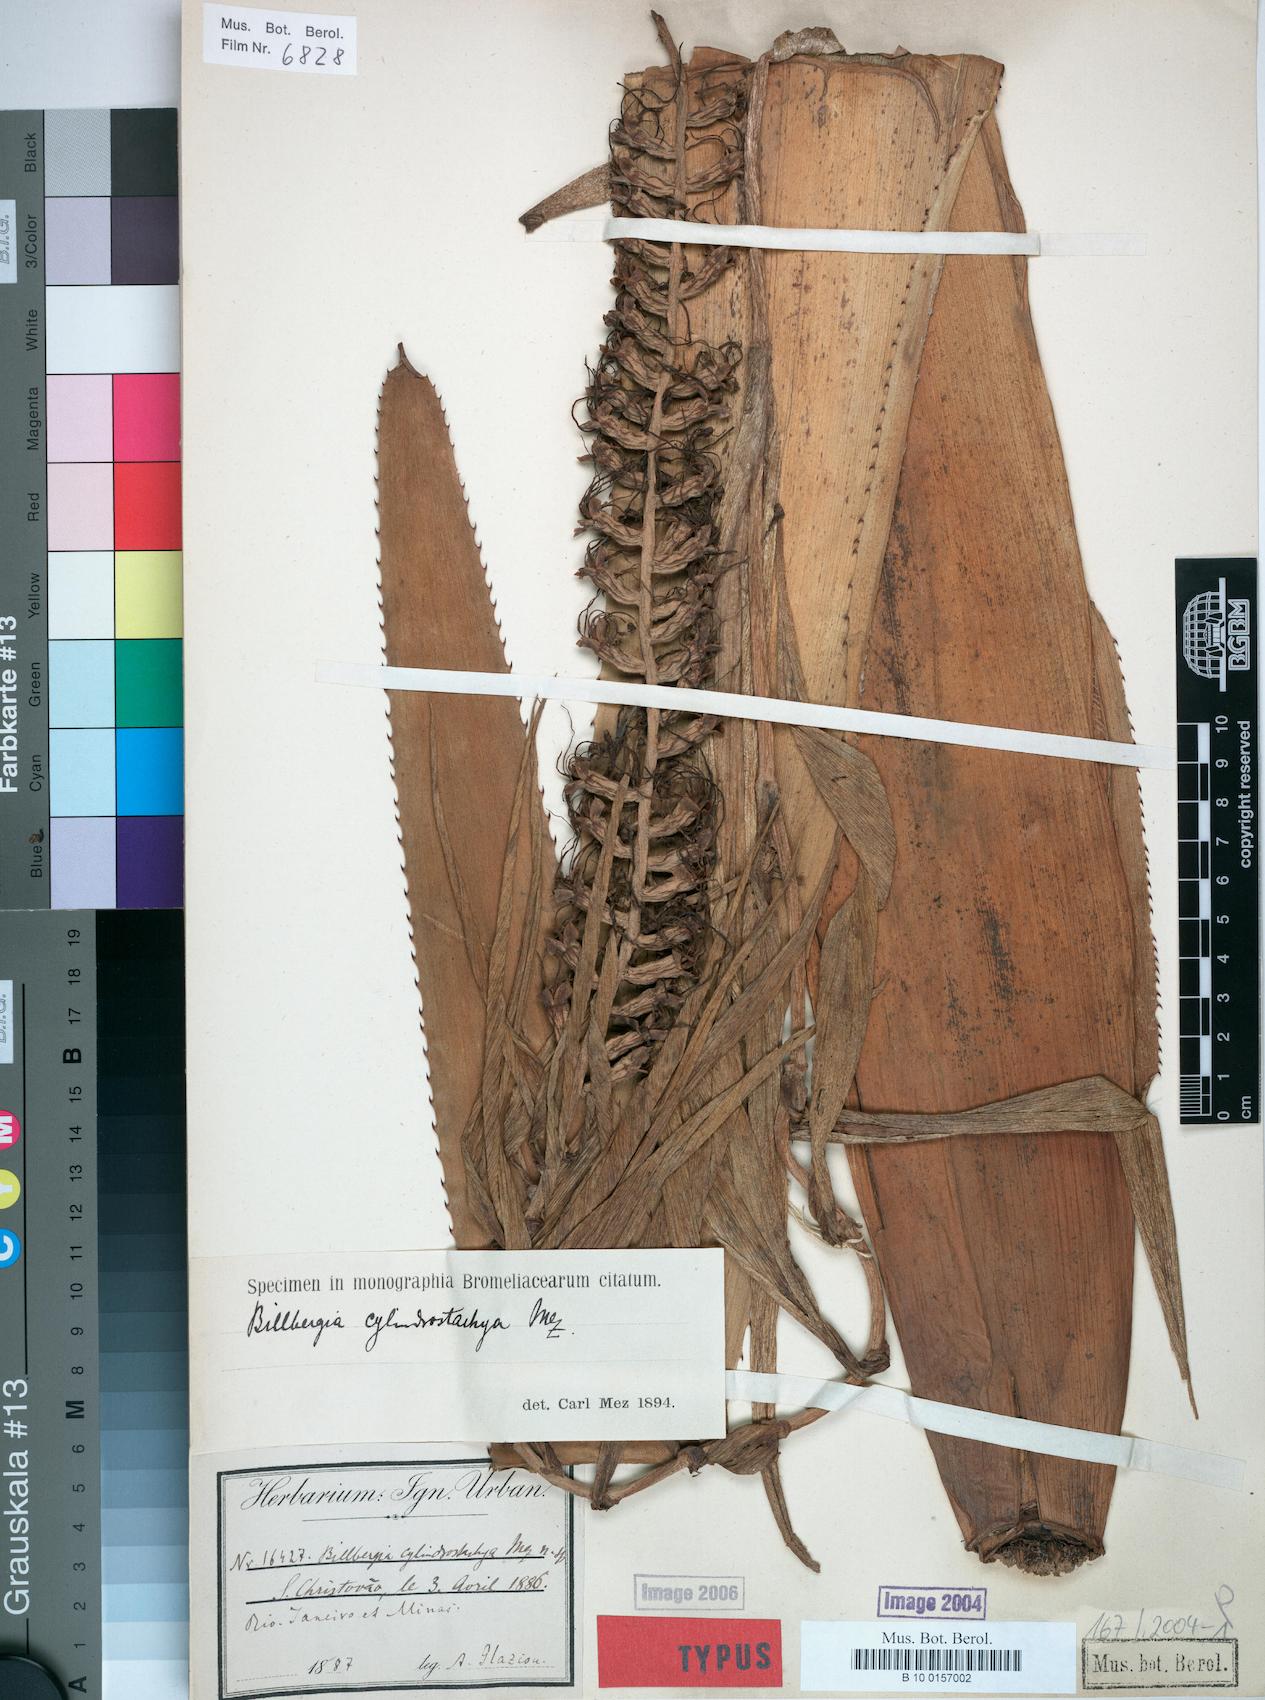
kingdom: Plantae
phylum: Tracheophyta
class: Liliopsida
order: Poales
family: Bromeliaceae
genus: Billbergia
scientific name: Billbergia cylindrostachya
